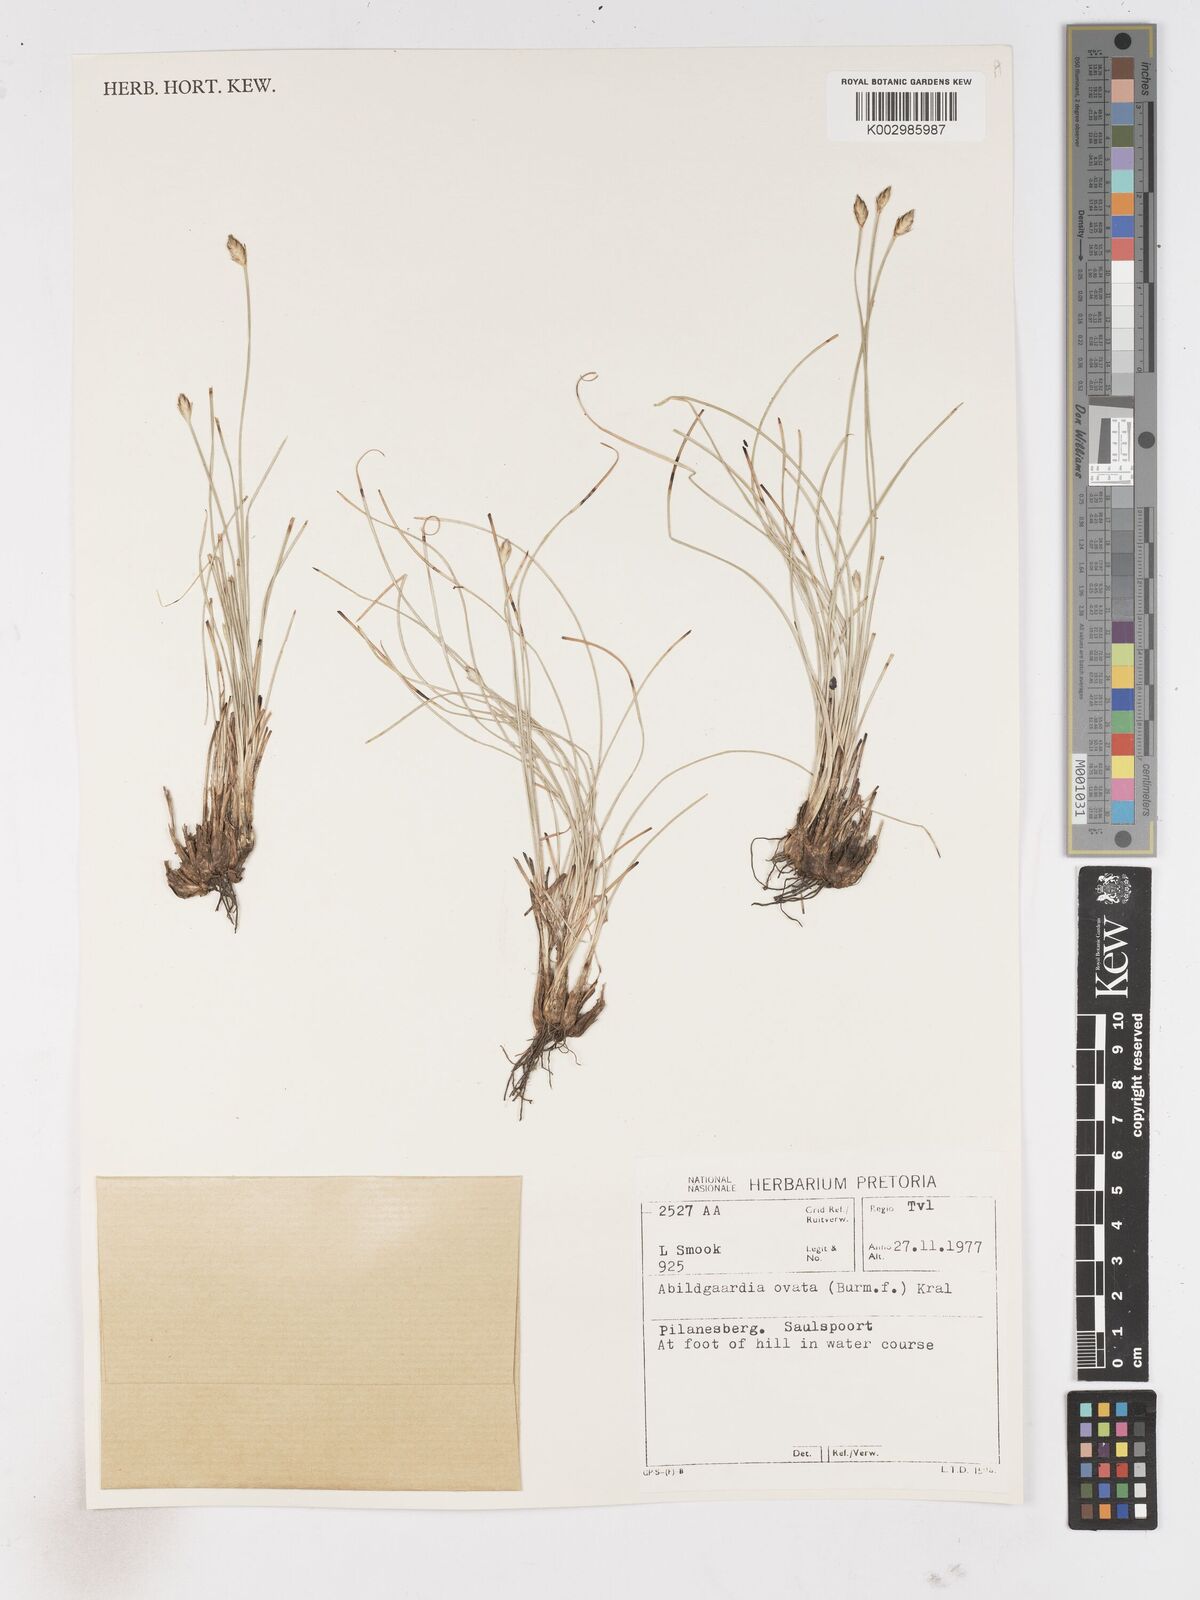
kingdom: Plantae
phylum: Tracheophyta
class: Liliopsida
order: Poales
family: Cyperaceae
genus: Abildgaardia
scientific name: Abildgaardia ovata
